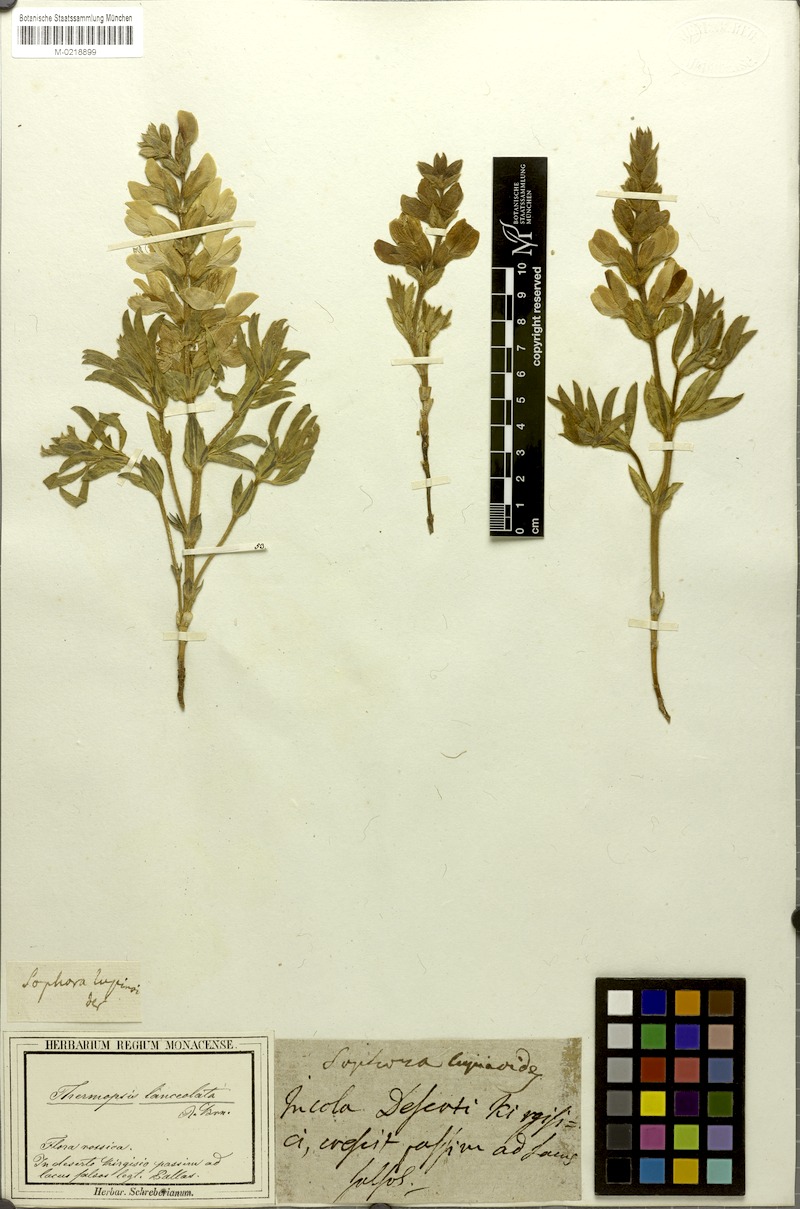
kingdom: Plantae
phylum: Tracheophyta
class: Magnoliopsida
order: Fabales
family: Fabaceae
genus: Thermopsis
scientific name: Thermopsis lanceolata
